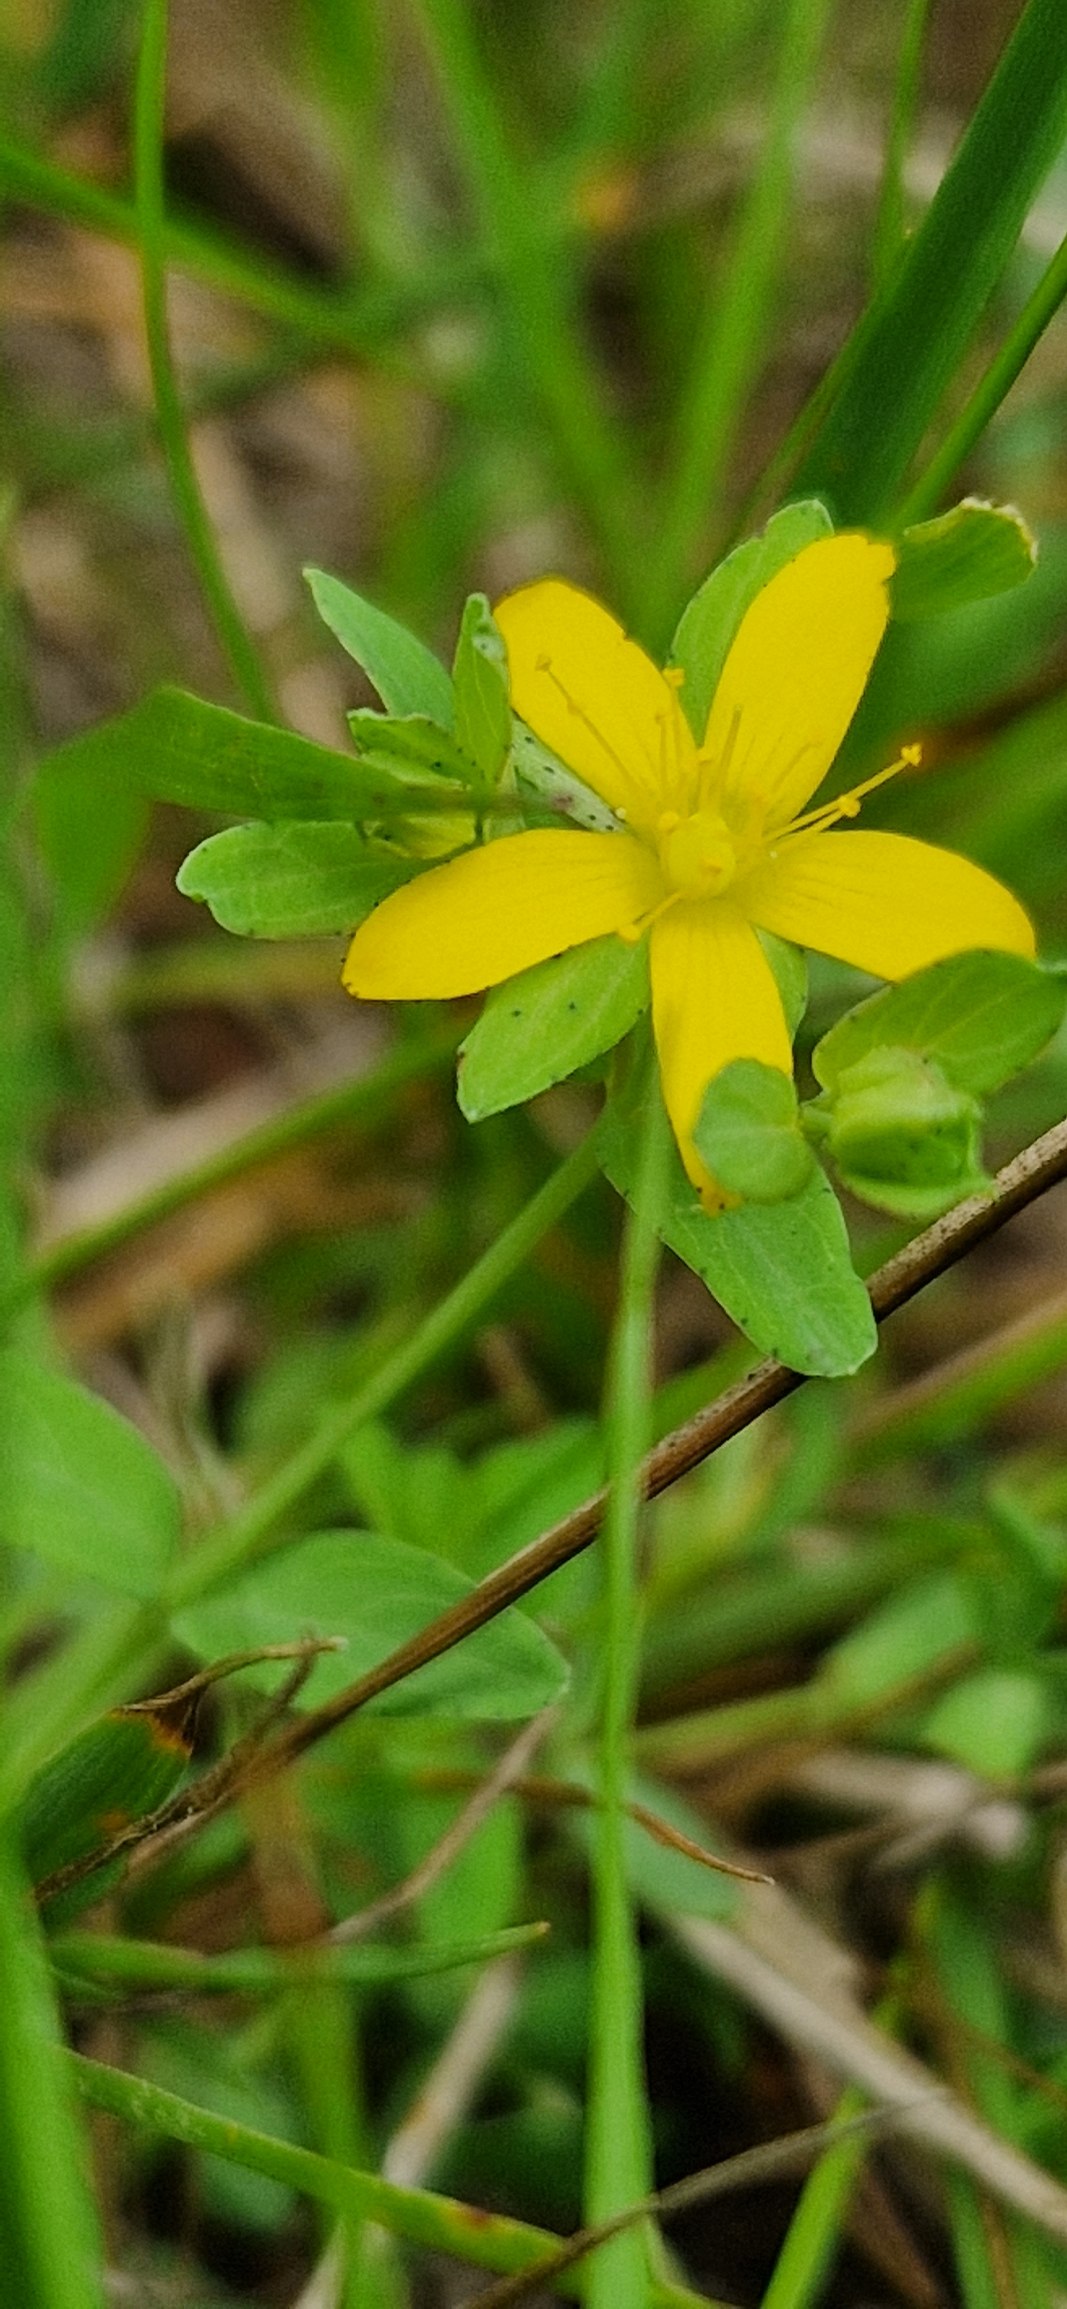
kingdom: Plantae
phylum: Tracheophyta
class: Magnoliopsida
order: Malpighiales
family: Hypericaceae
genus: Hypericum
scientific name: Hypericum humifusum
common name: Dværg-perikon
